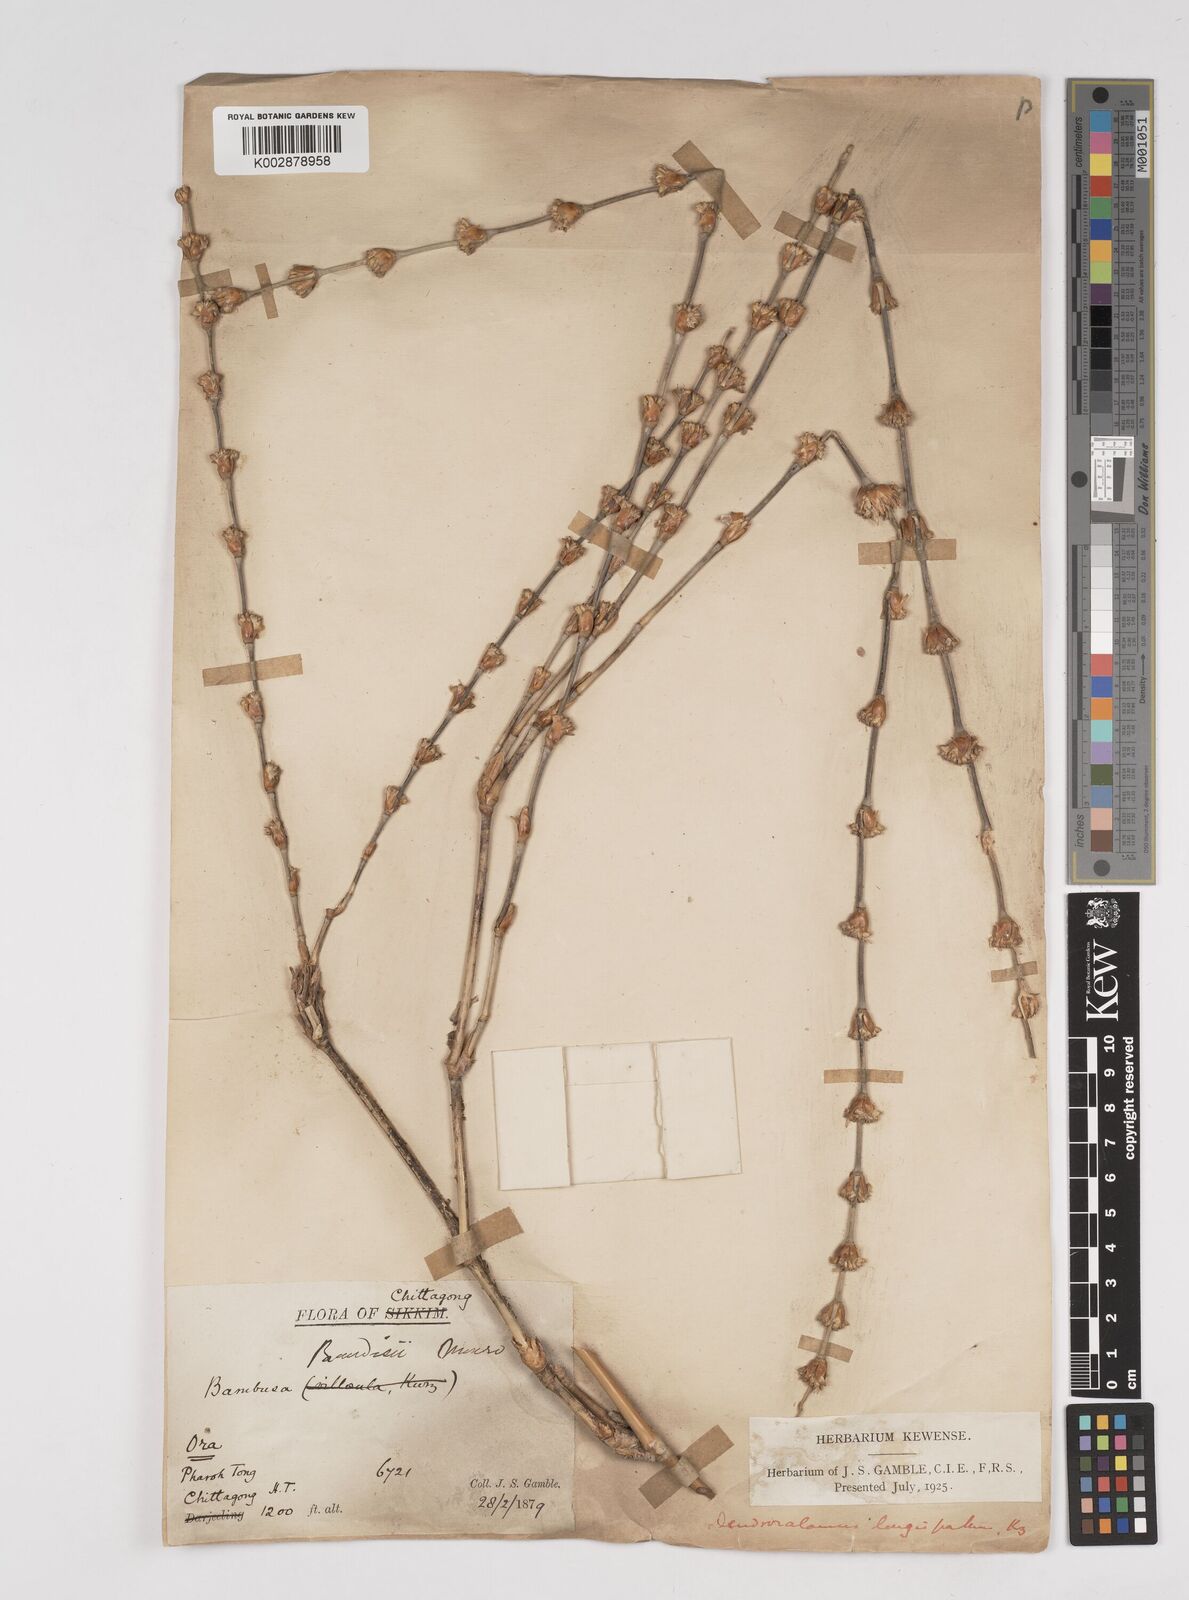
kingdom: Plantae
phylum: Tracheophyta
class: Liliopsida
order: Poales
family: Poaceae
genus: Dendrocalamus
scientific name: Dendrocalamus longispathus
